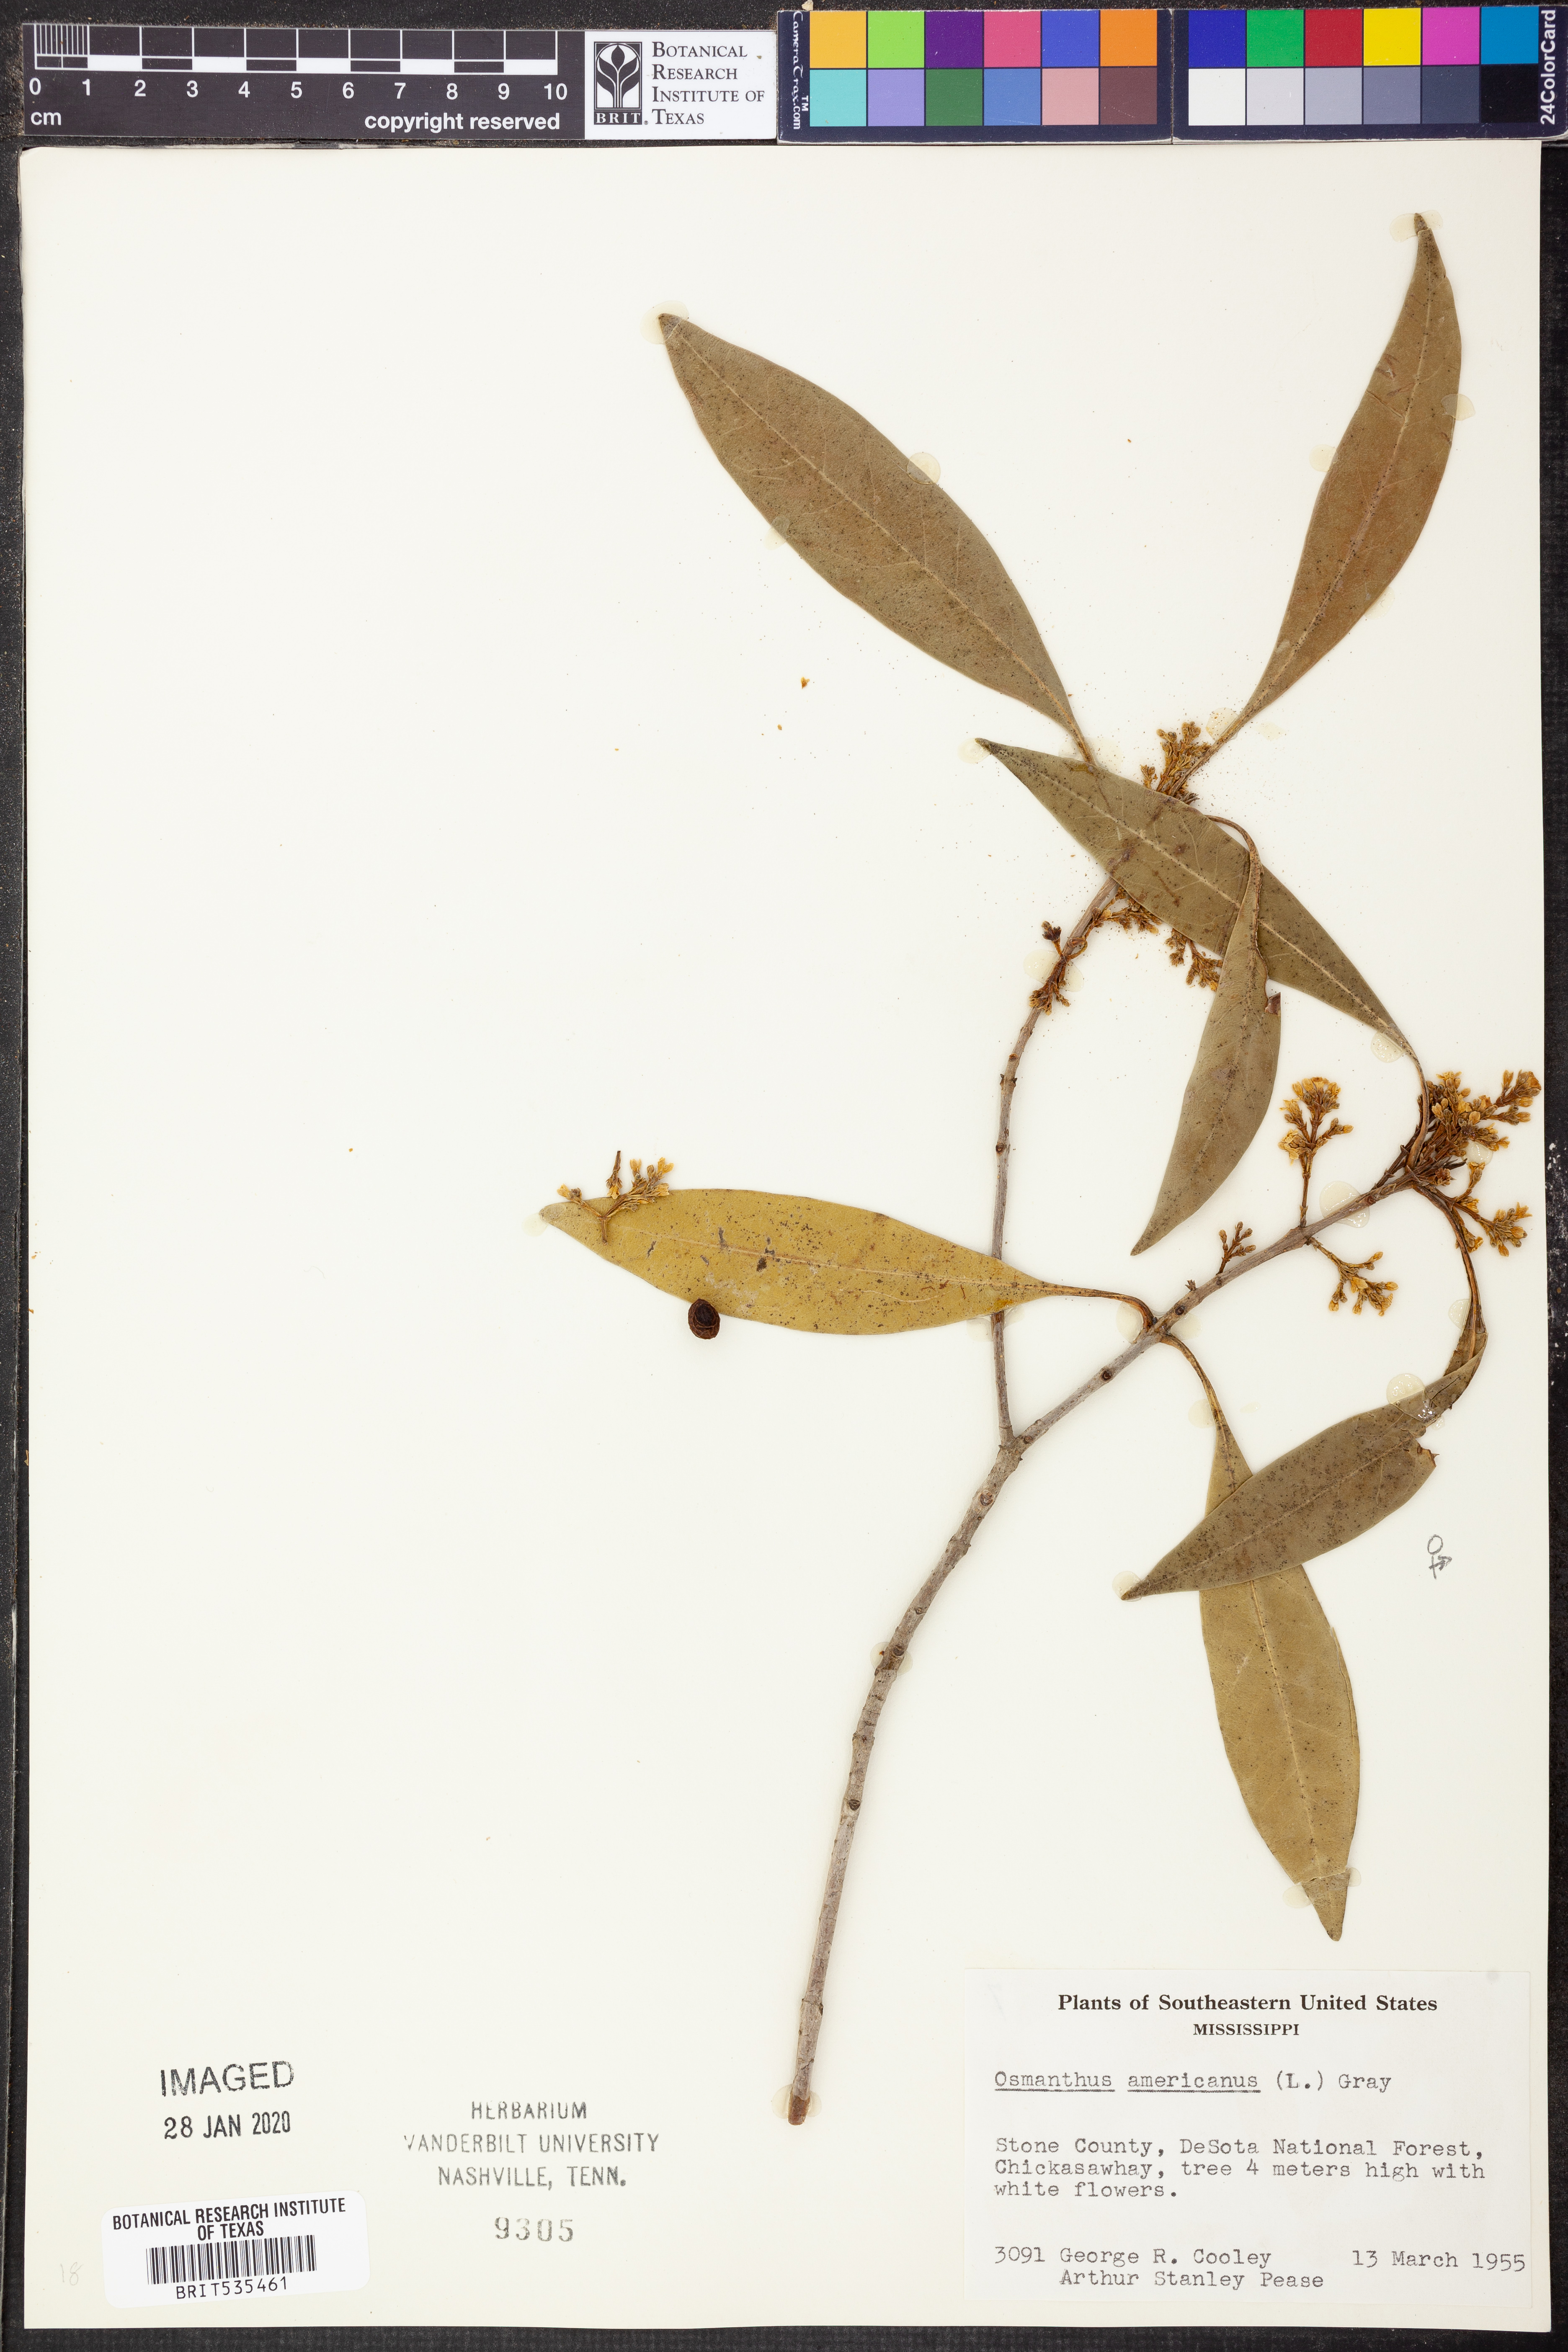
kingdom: Plantae
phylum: Tracheophyta
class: Magnoliopsida
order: Lamiales
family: Oleaceae
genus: Osmanthus
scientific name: Osmanthus americanus
